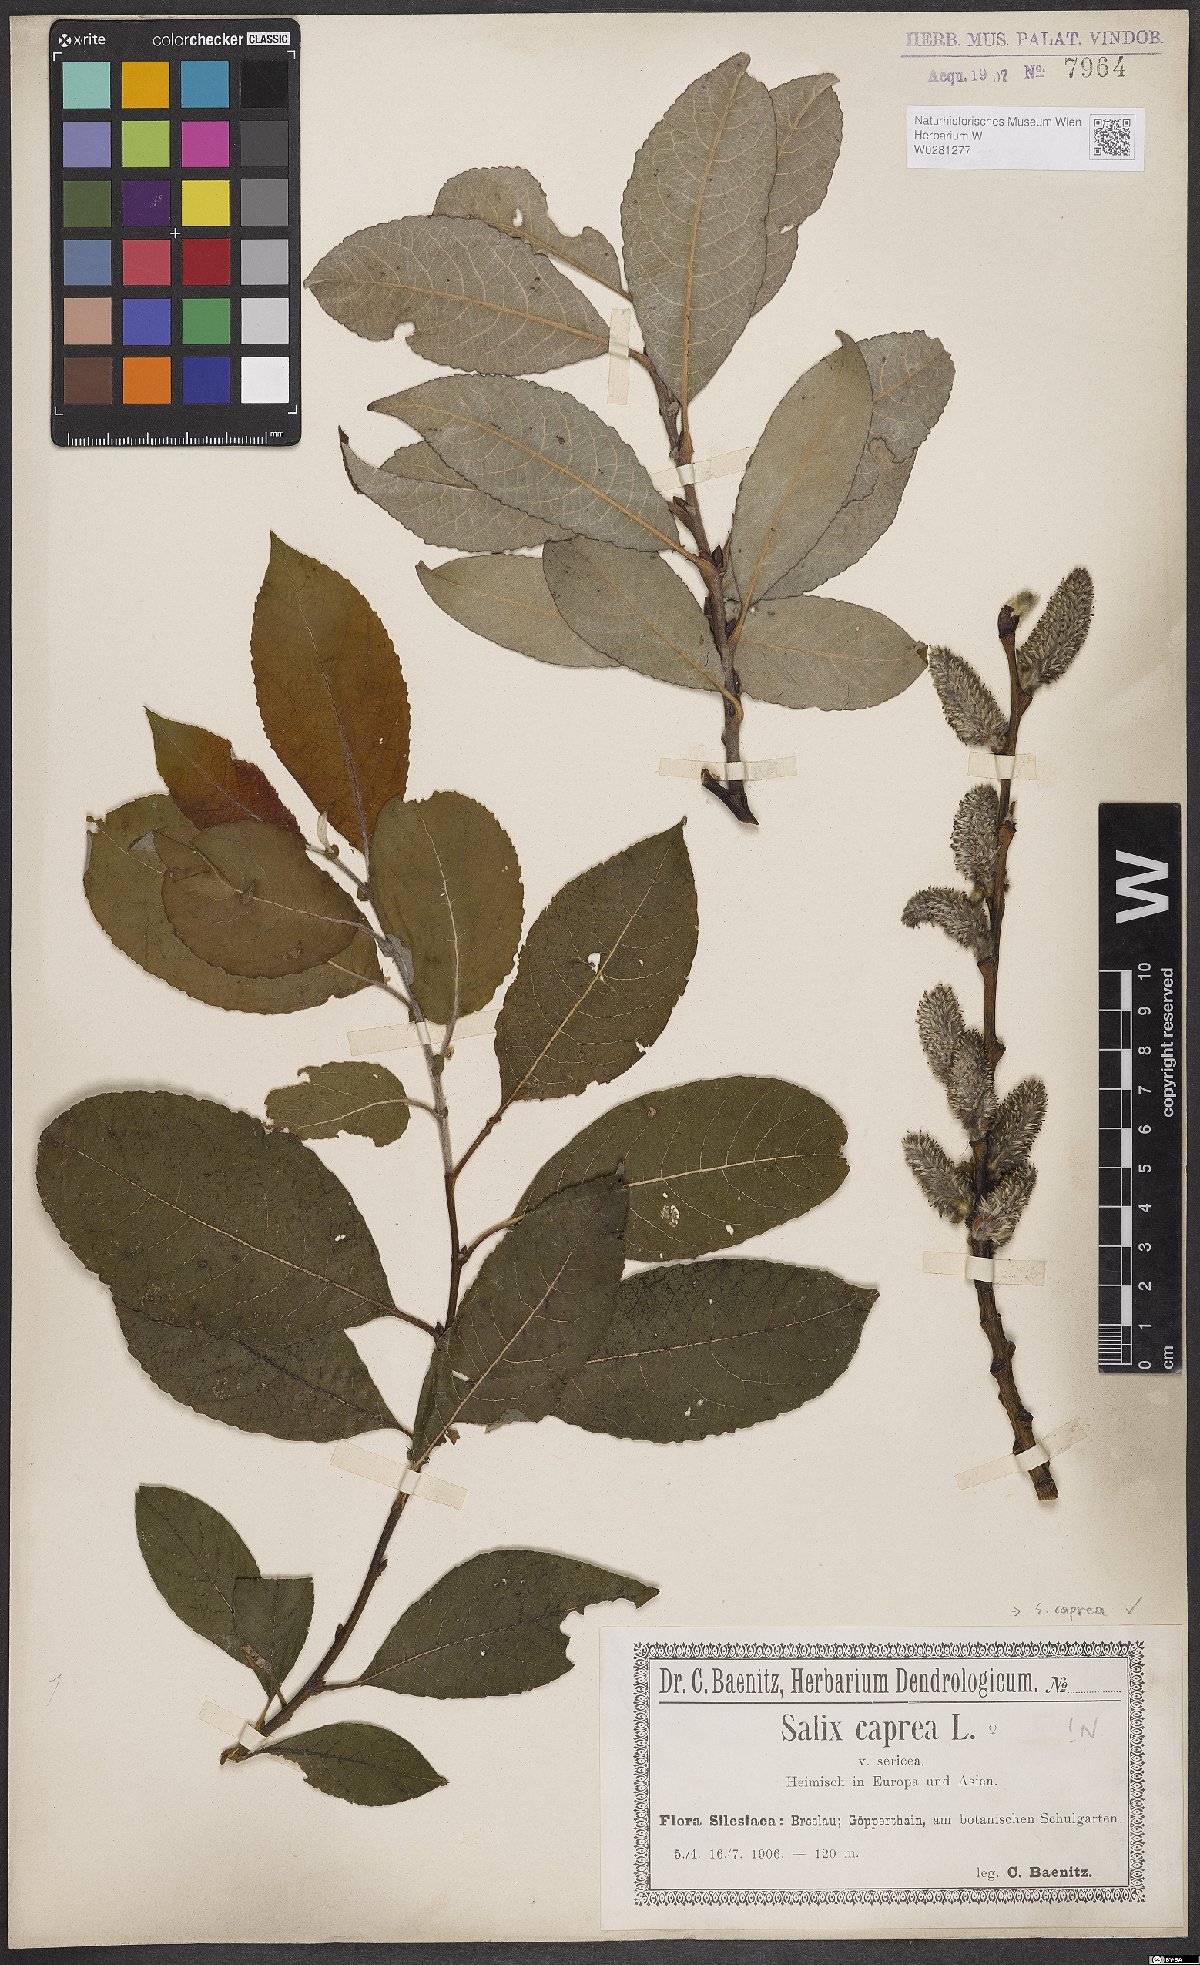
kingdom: Plantae
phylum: Tracheophyta
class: Magnoliopsida
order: Malpighiales
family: Salicaceae
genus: Salix
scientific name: Salix caprea
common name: Goat willow
